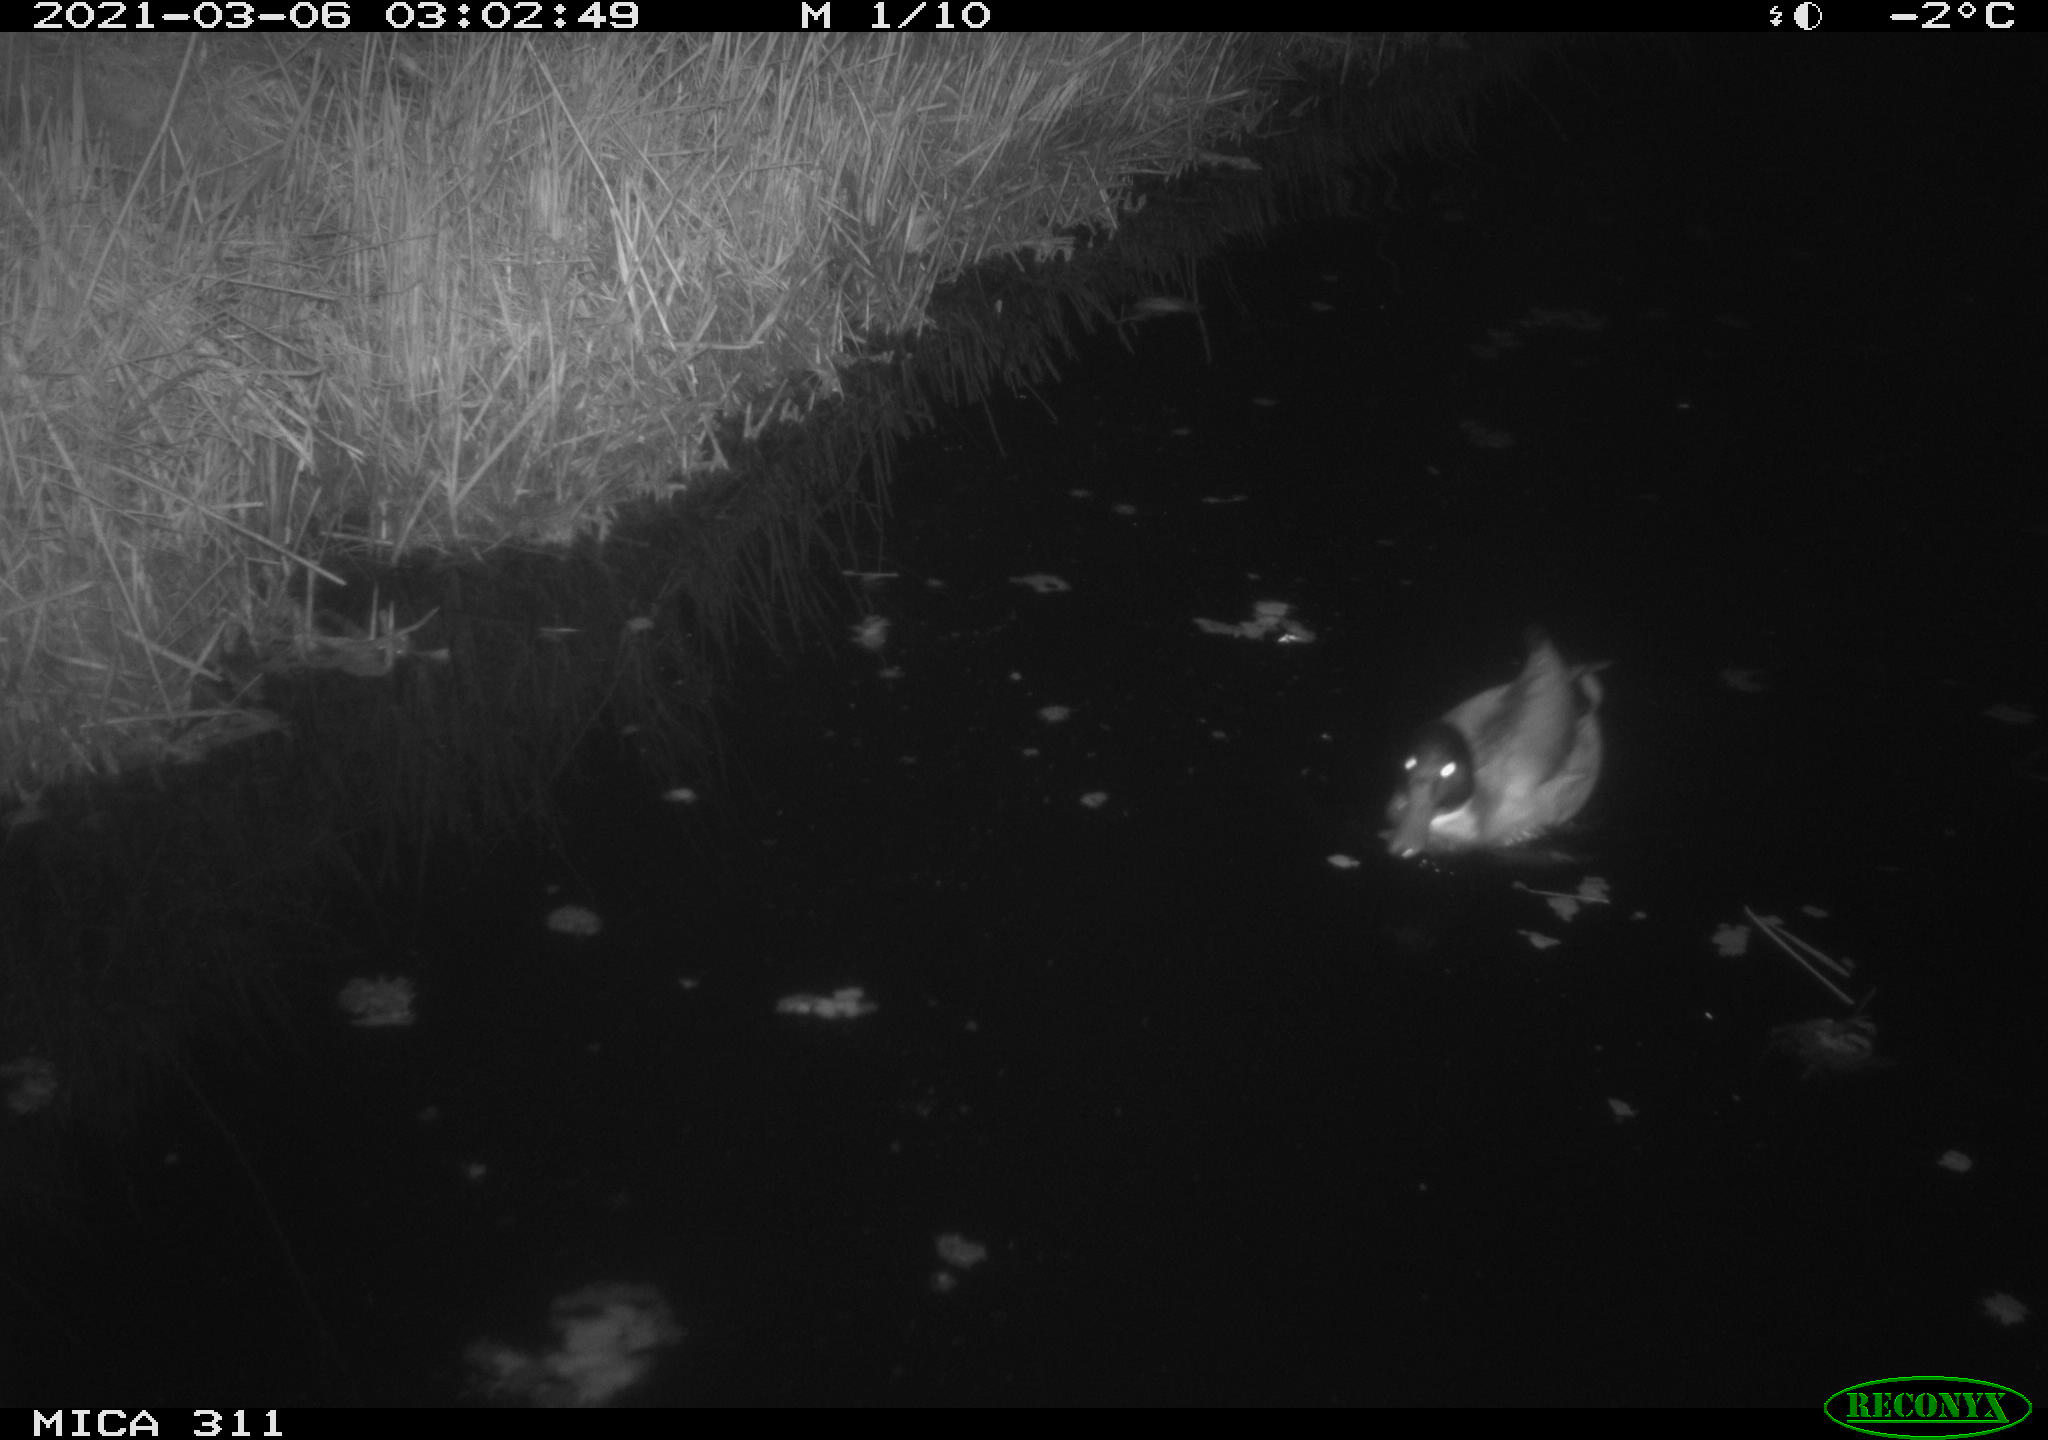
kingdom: Animalia
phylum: Chordata
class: Aves
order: Anseriformes
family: Anatidae
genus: Anas
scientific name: Anas platyrhynchos
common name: Mallard
